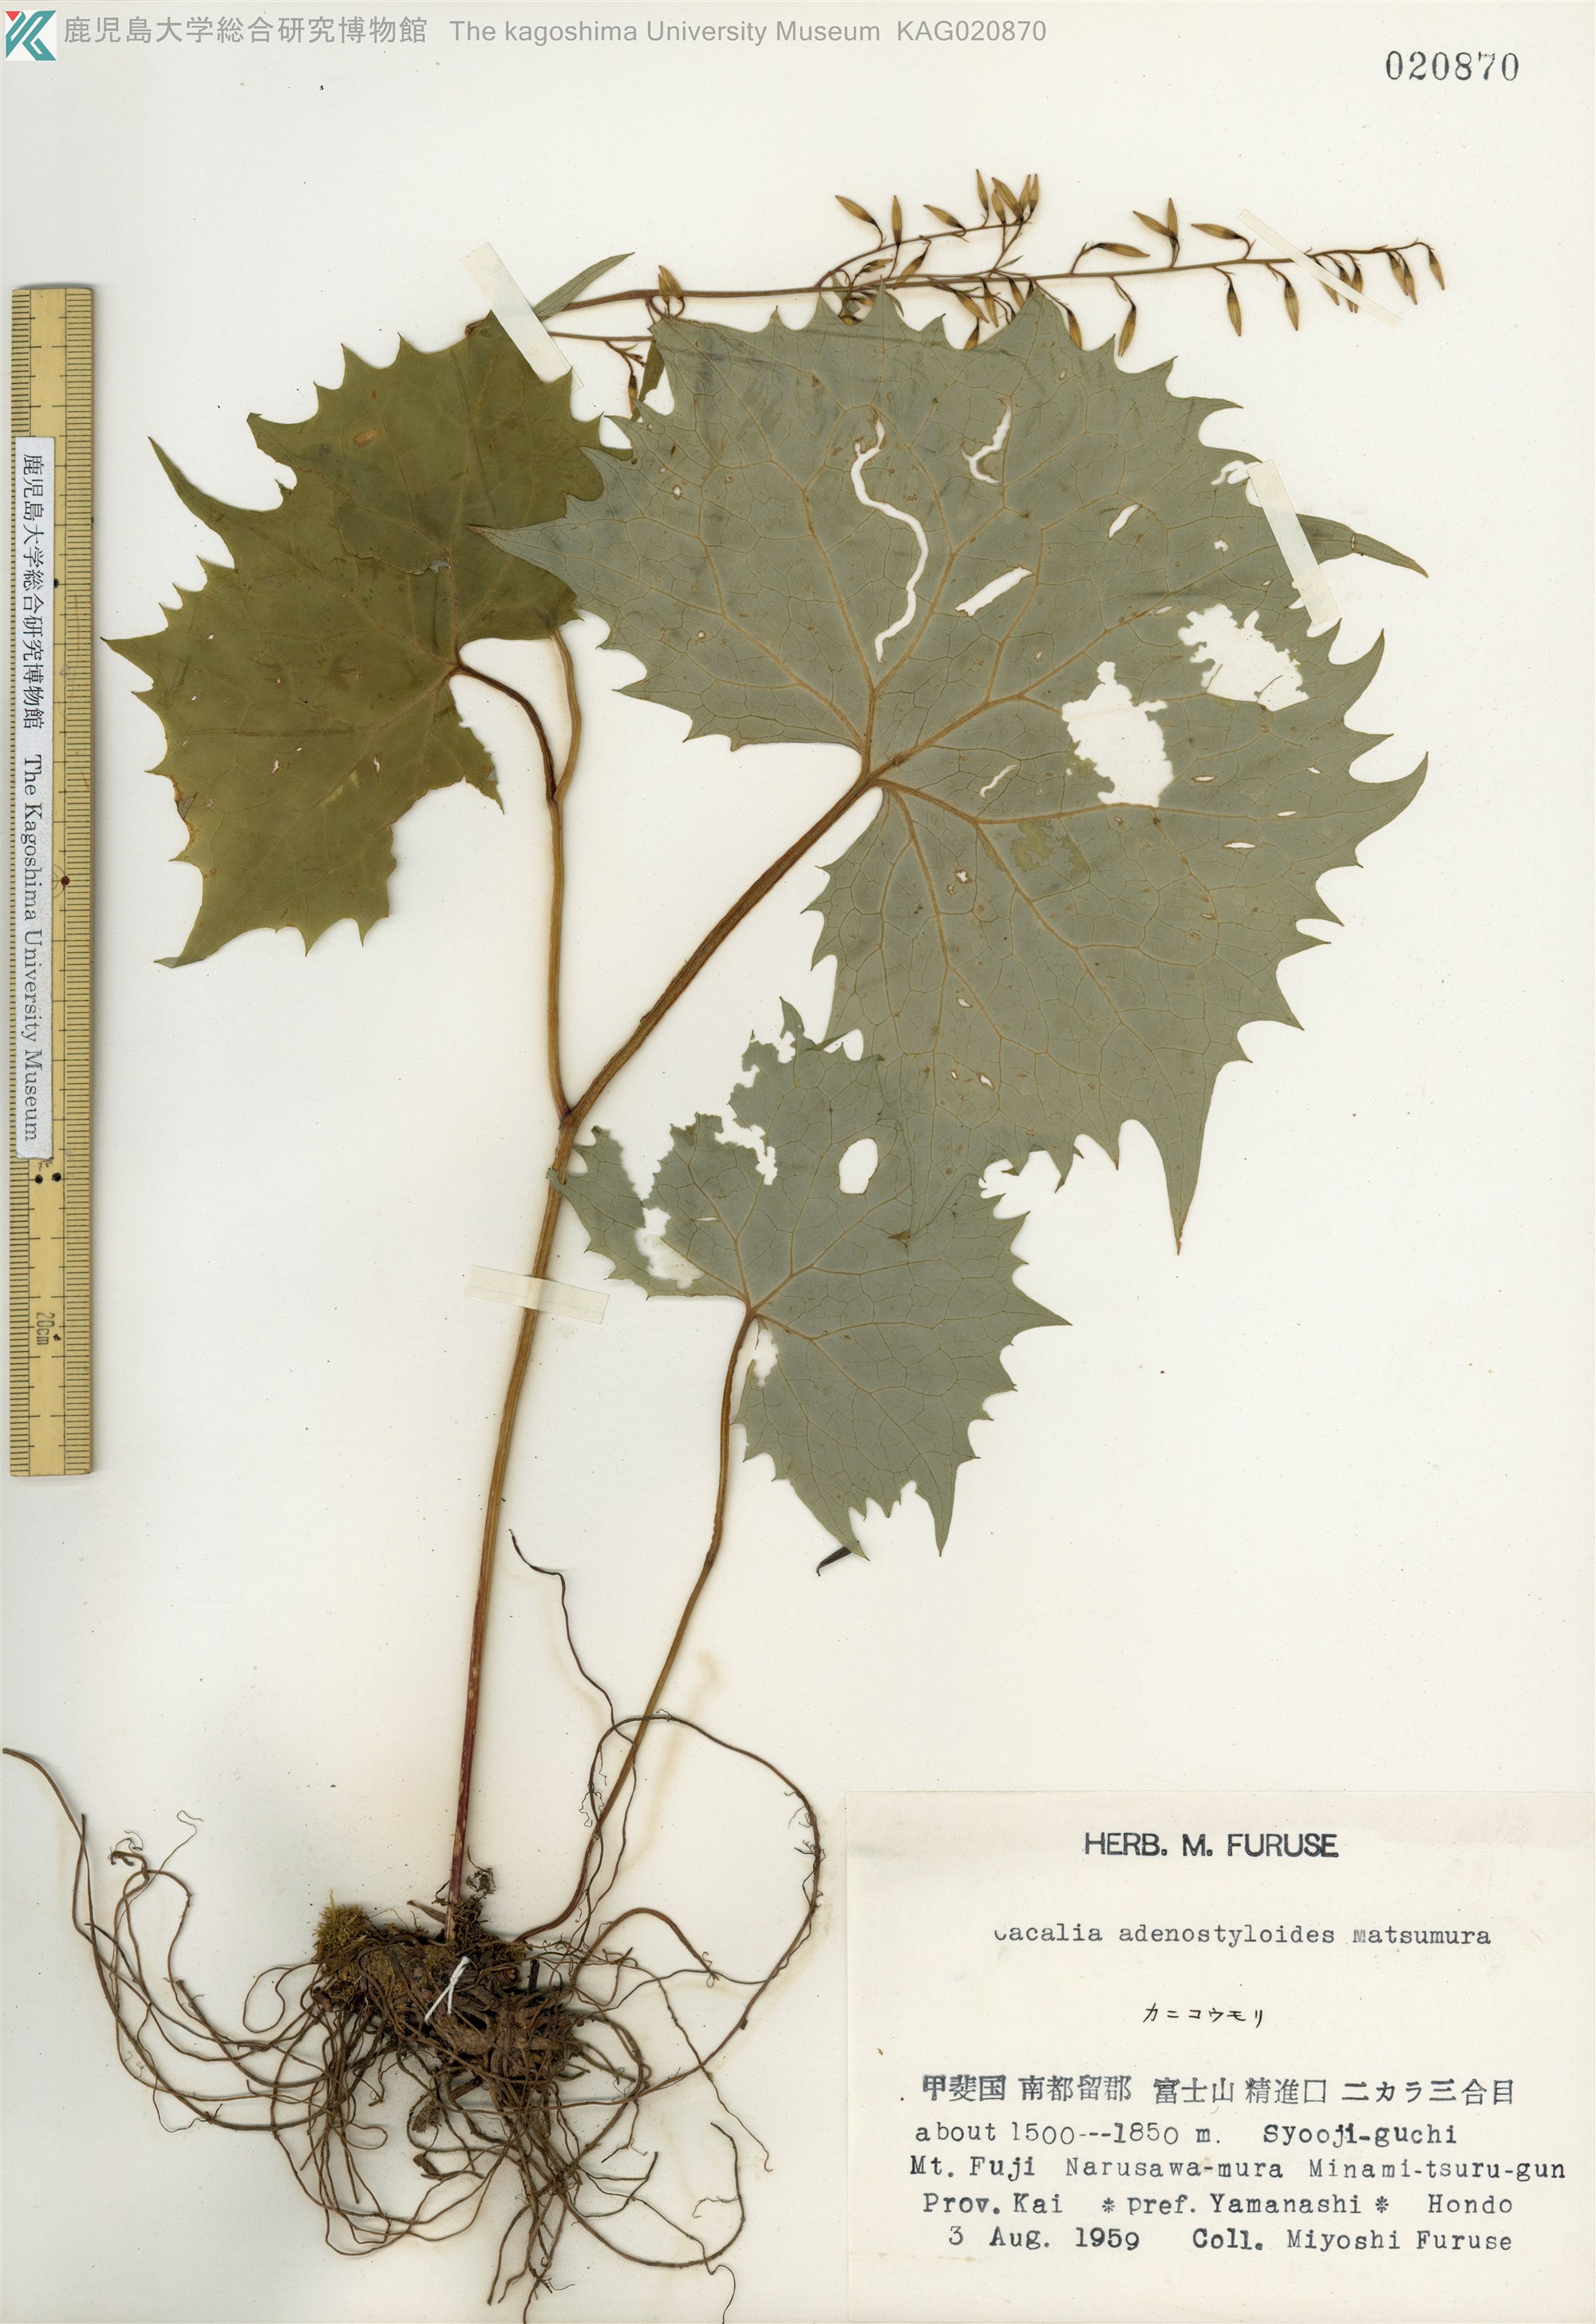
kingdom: Plantae
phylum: Tracheophyta
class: Magnoliopsida
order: Asterales
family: Asteraceae
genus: Parasenecio
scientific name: Parasenecio farfarifolius
